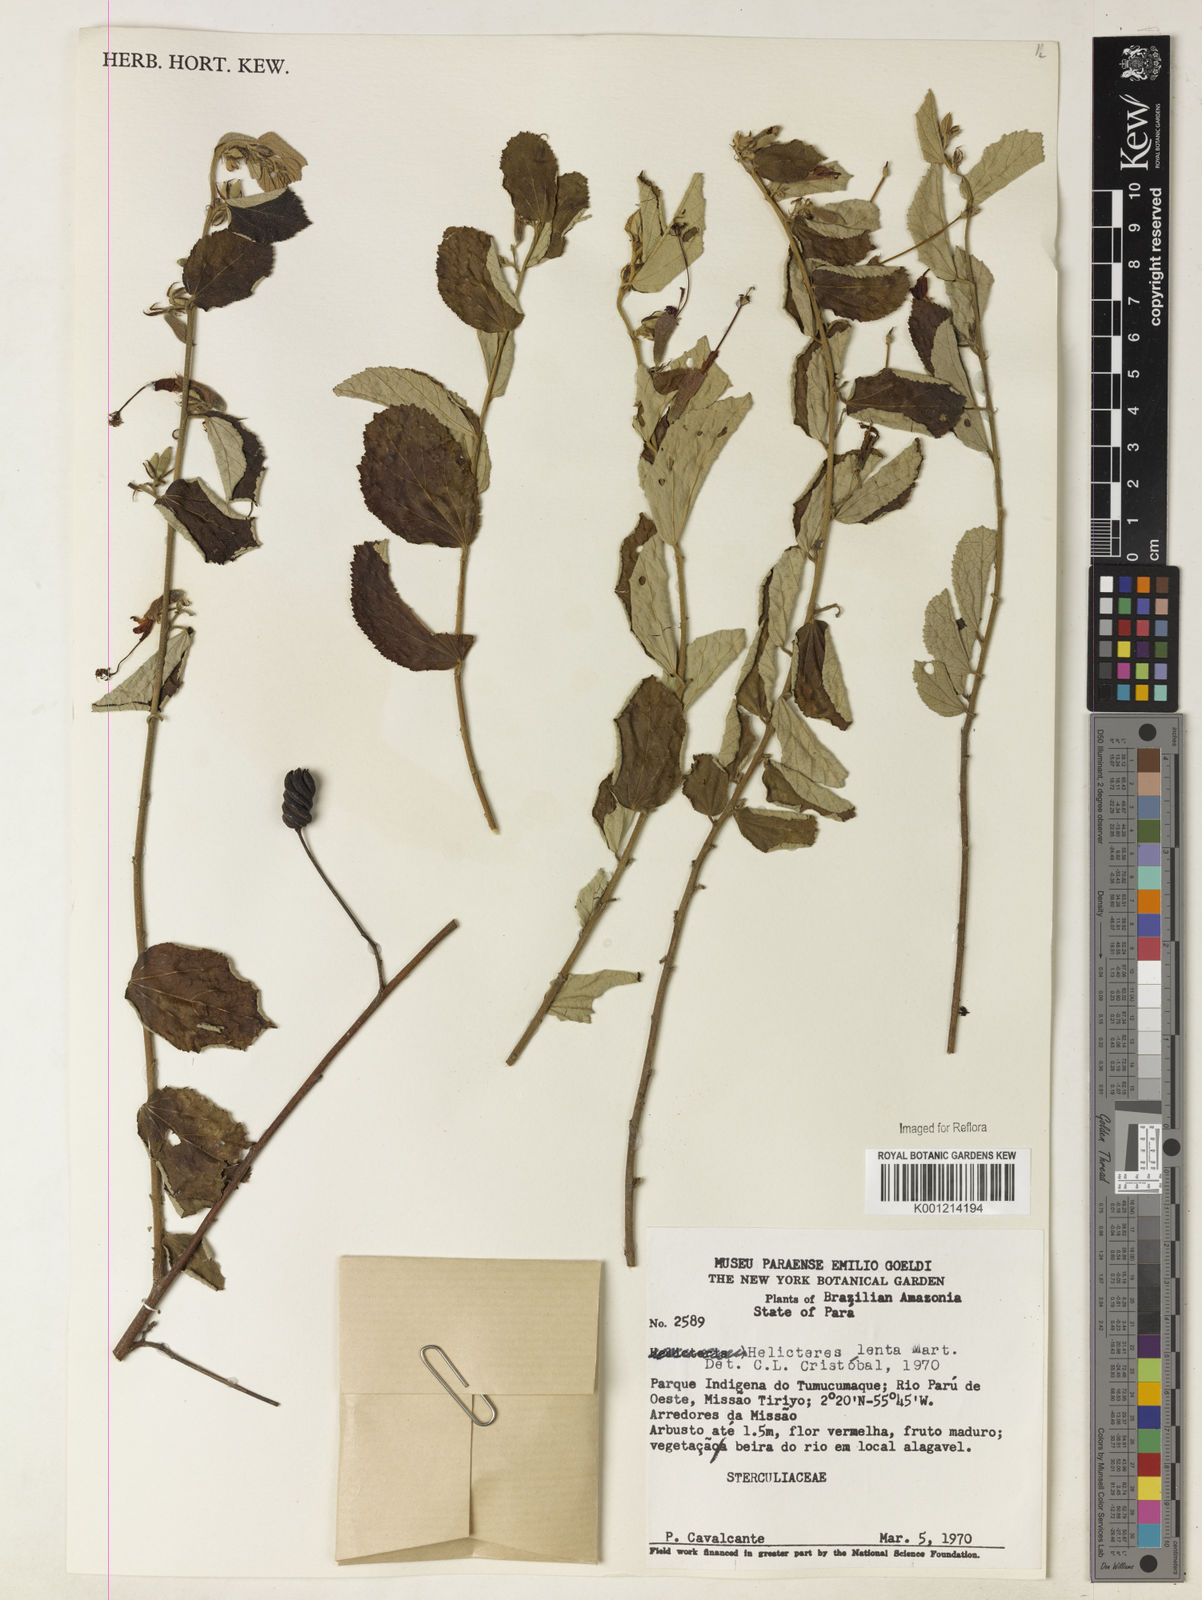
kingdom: Plantae
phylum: Tracheophyta
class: Magnoliopsida
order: Malvales
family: Malvaceae
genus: Helicteres
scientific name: Helicteres lenta
